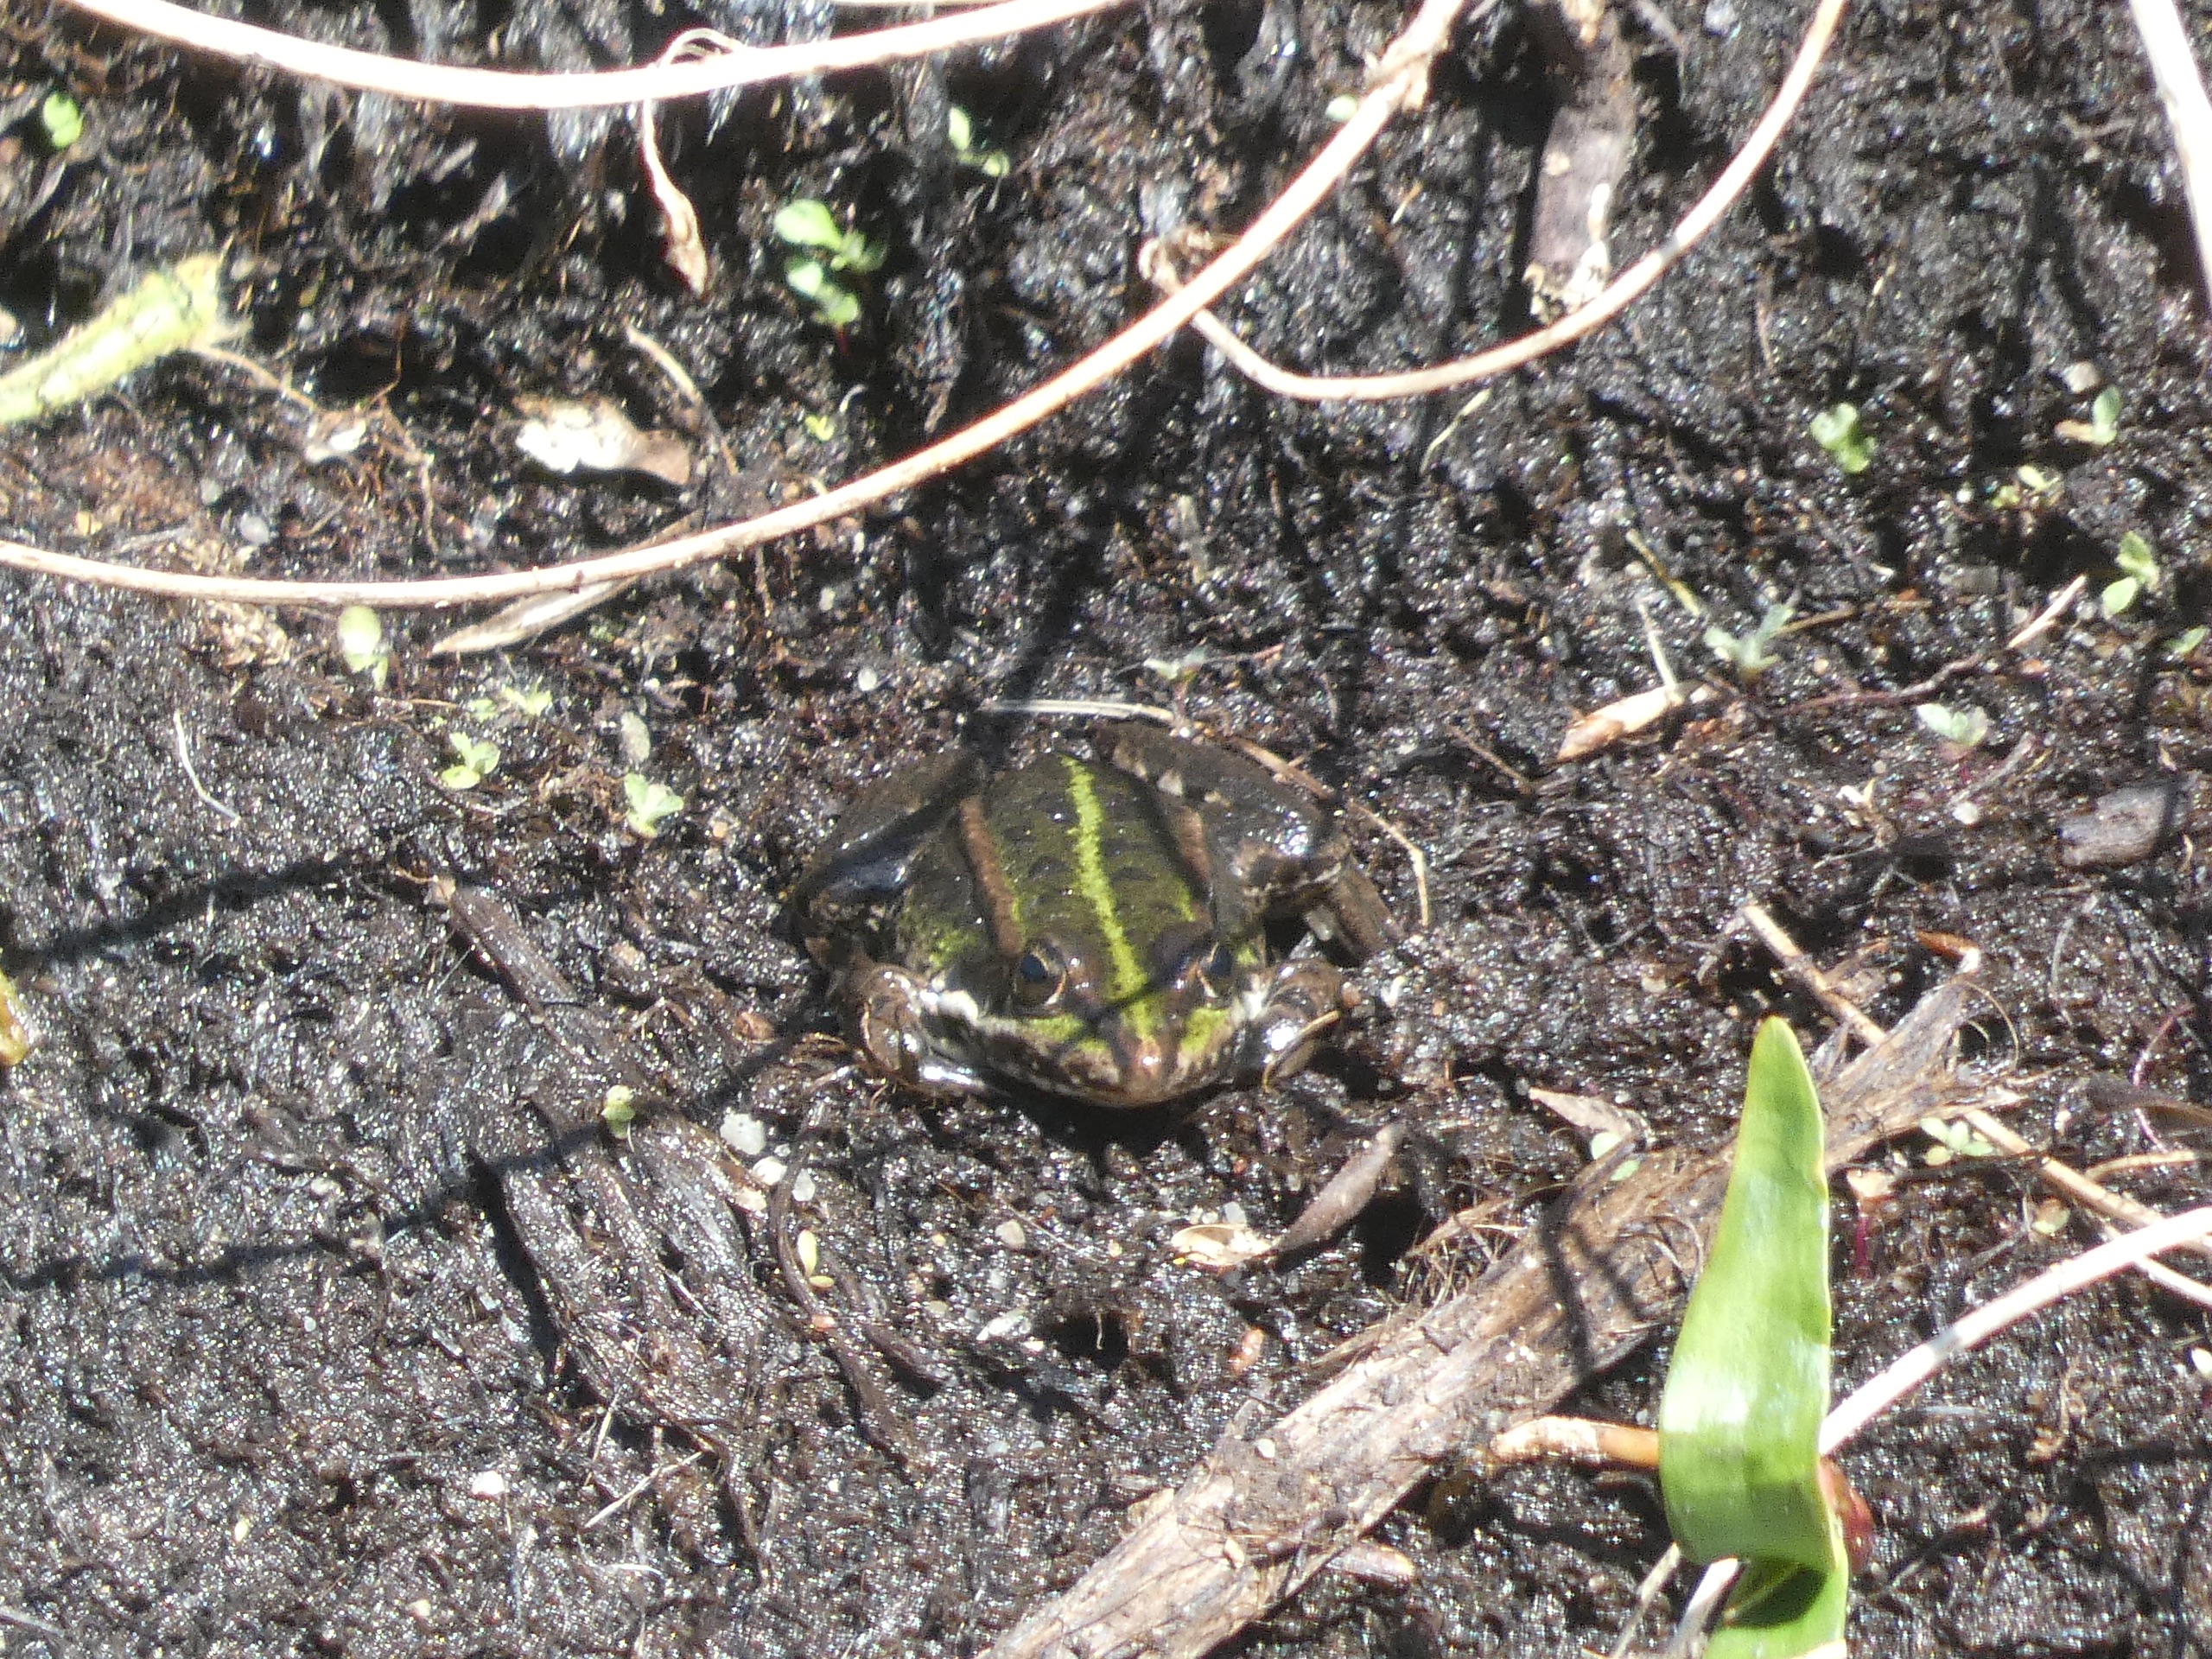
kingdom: Animalia
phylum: Chordata
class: Amphibia
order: Anura
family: Ranidae
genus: Pelophylax
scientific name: Pelophylax lessonae
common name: Grøn frø
